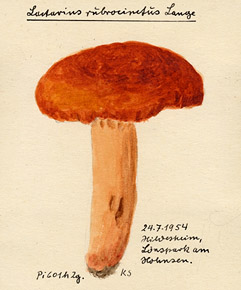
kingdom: Fungi
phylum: Basidiomycota
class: Agaricomycetes
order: Russulales
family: Russulaceae
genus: Lactarius
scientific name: Lactarius fulvissimus
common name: Tawny milkcap
